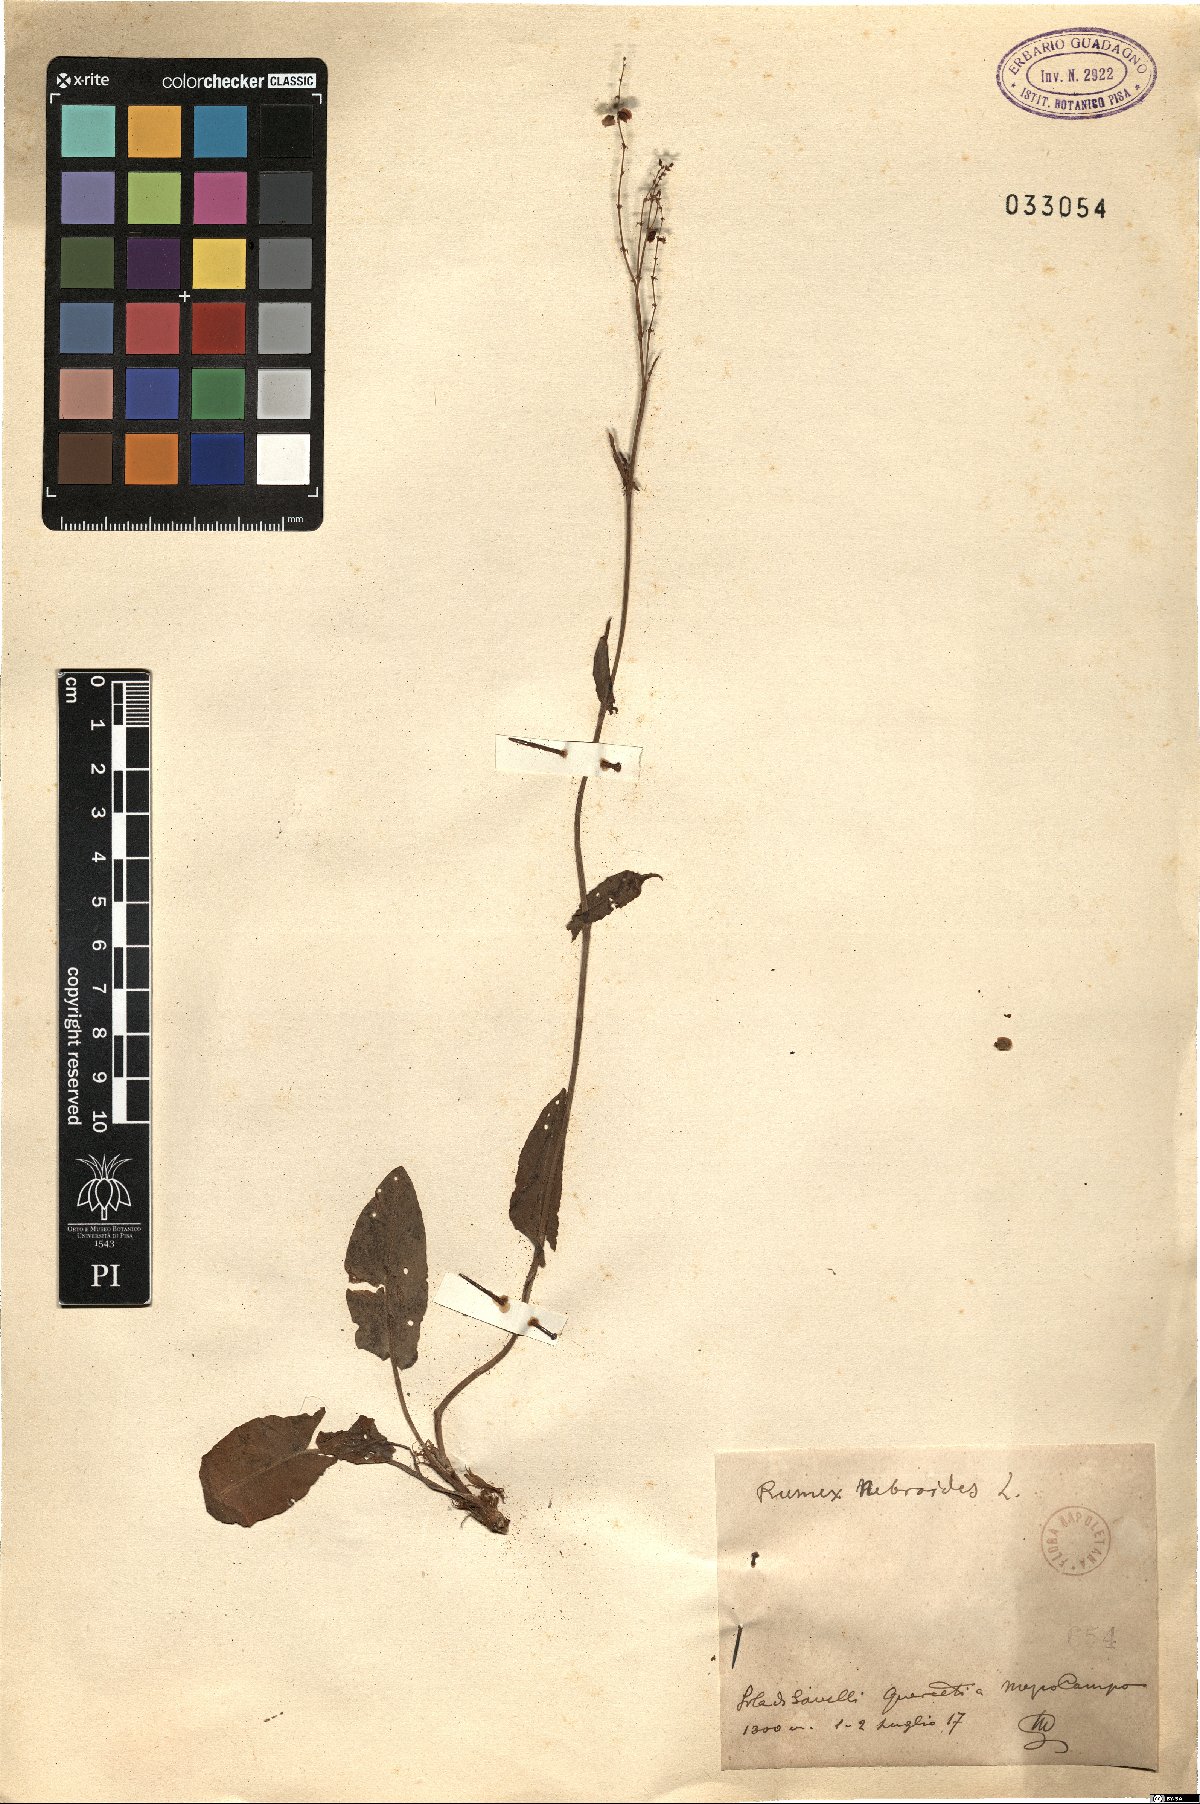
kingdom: Plantae
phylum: Tracheophyta
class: Magnoliopsida
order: Caryophyllales
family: Polygonaceae
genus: Rumex
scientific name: Rumex nebroides
